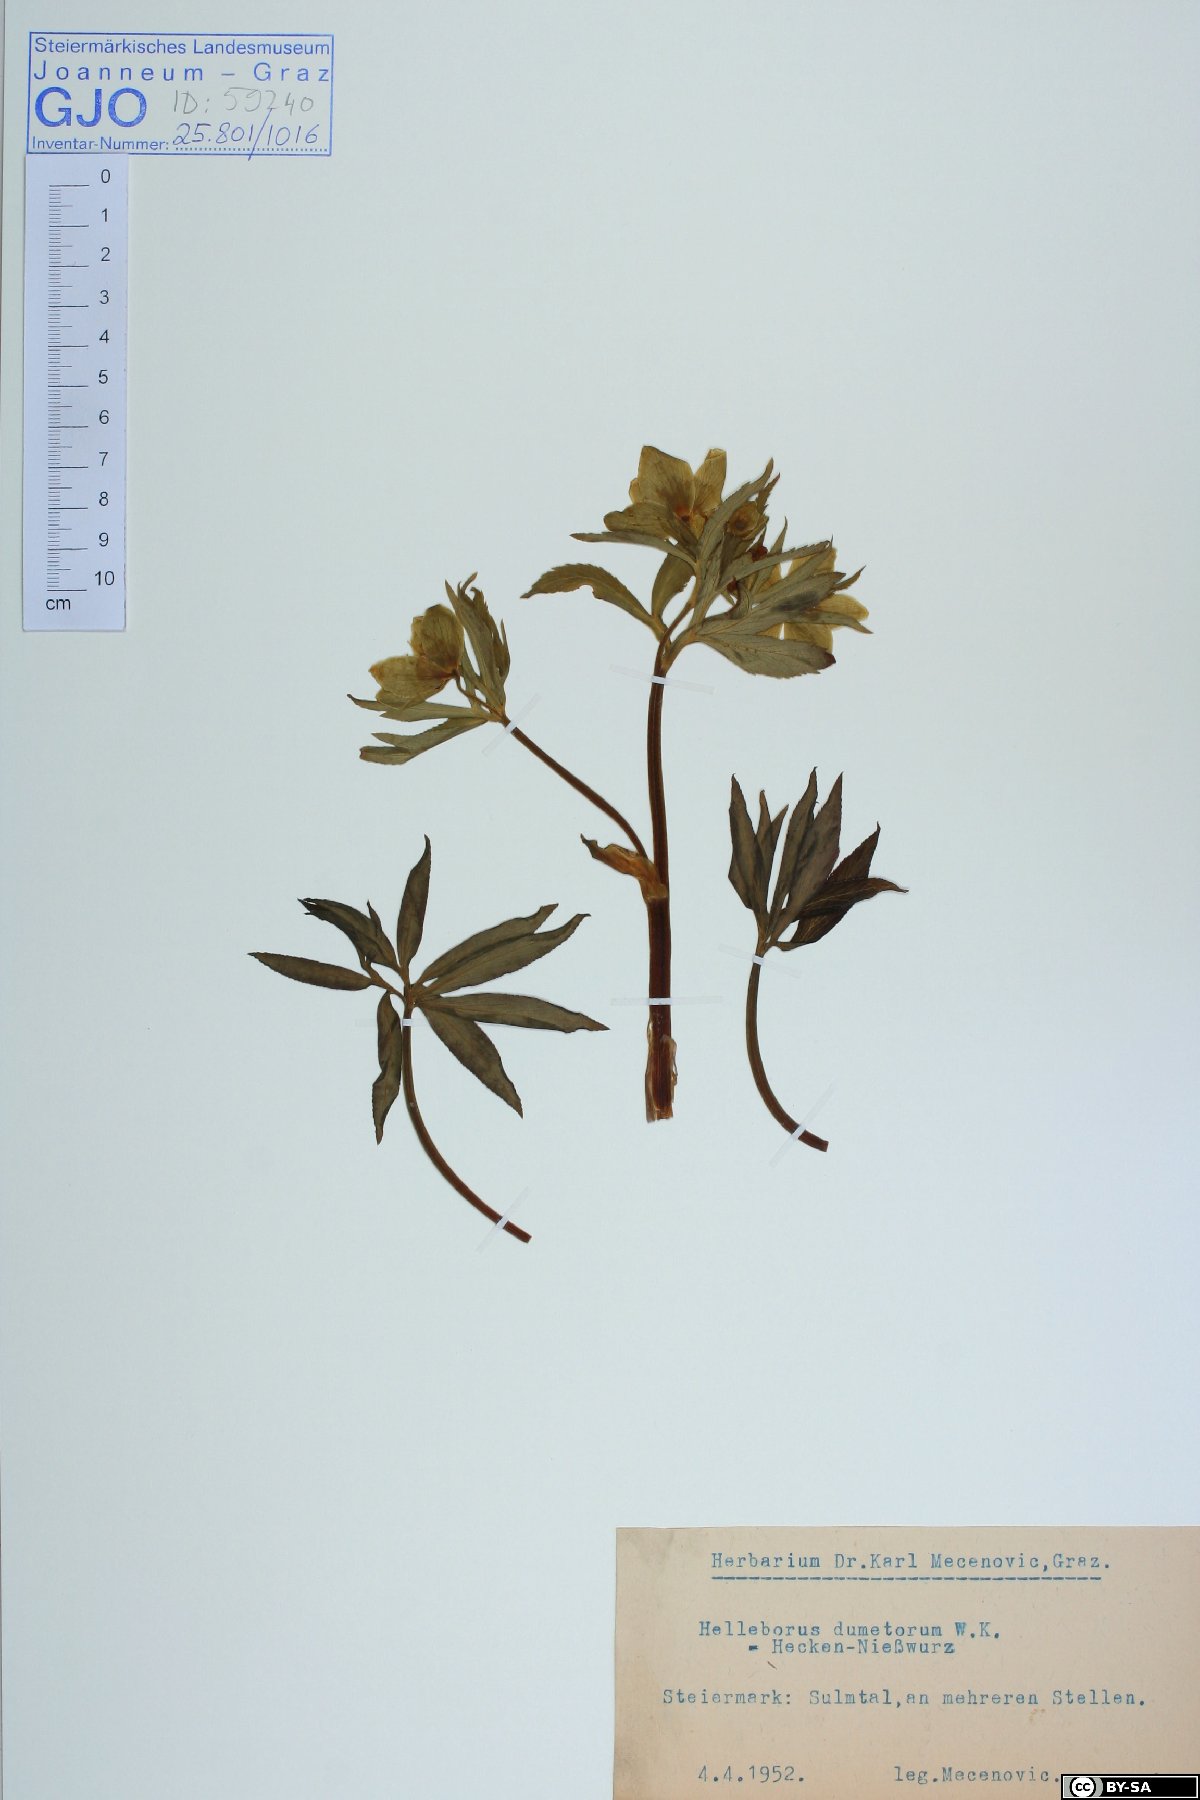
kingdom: Plantae
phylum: Tracheophyta
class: Magnoliopsida
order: Ranunculales
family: Ranunculaceae
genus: Helleborus
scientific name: Helleborus dumetorum
